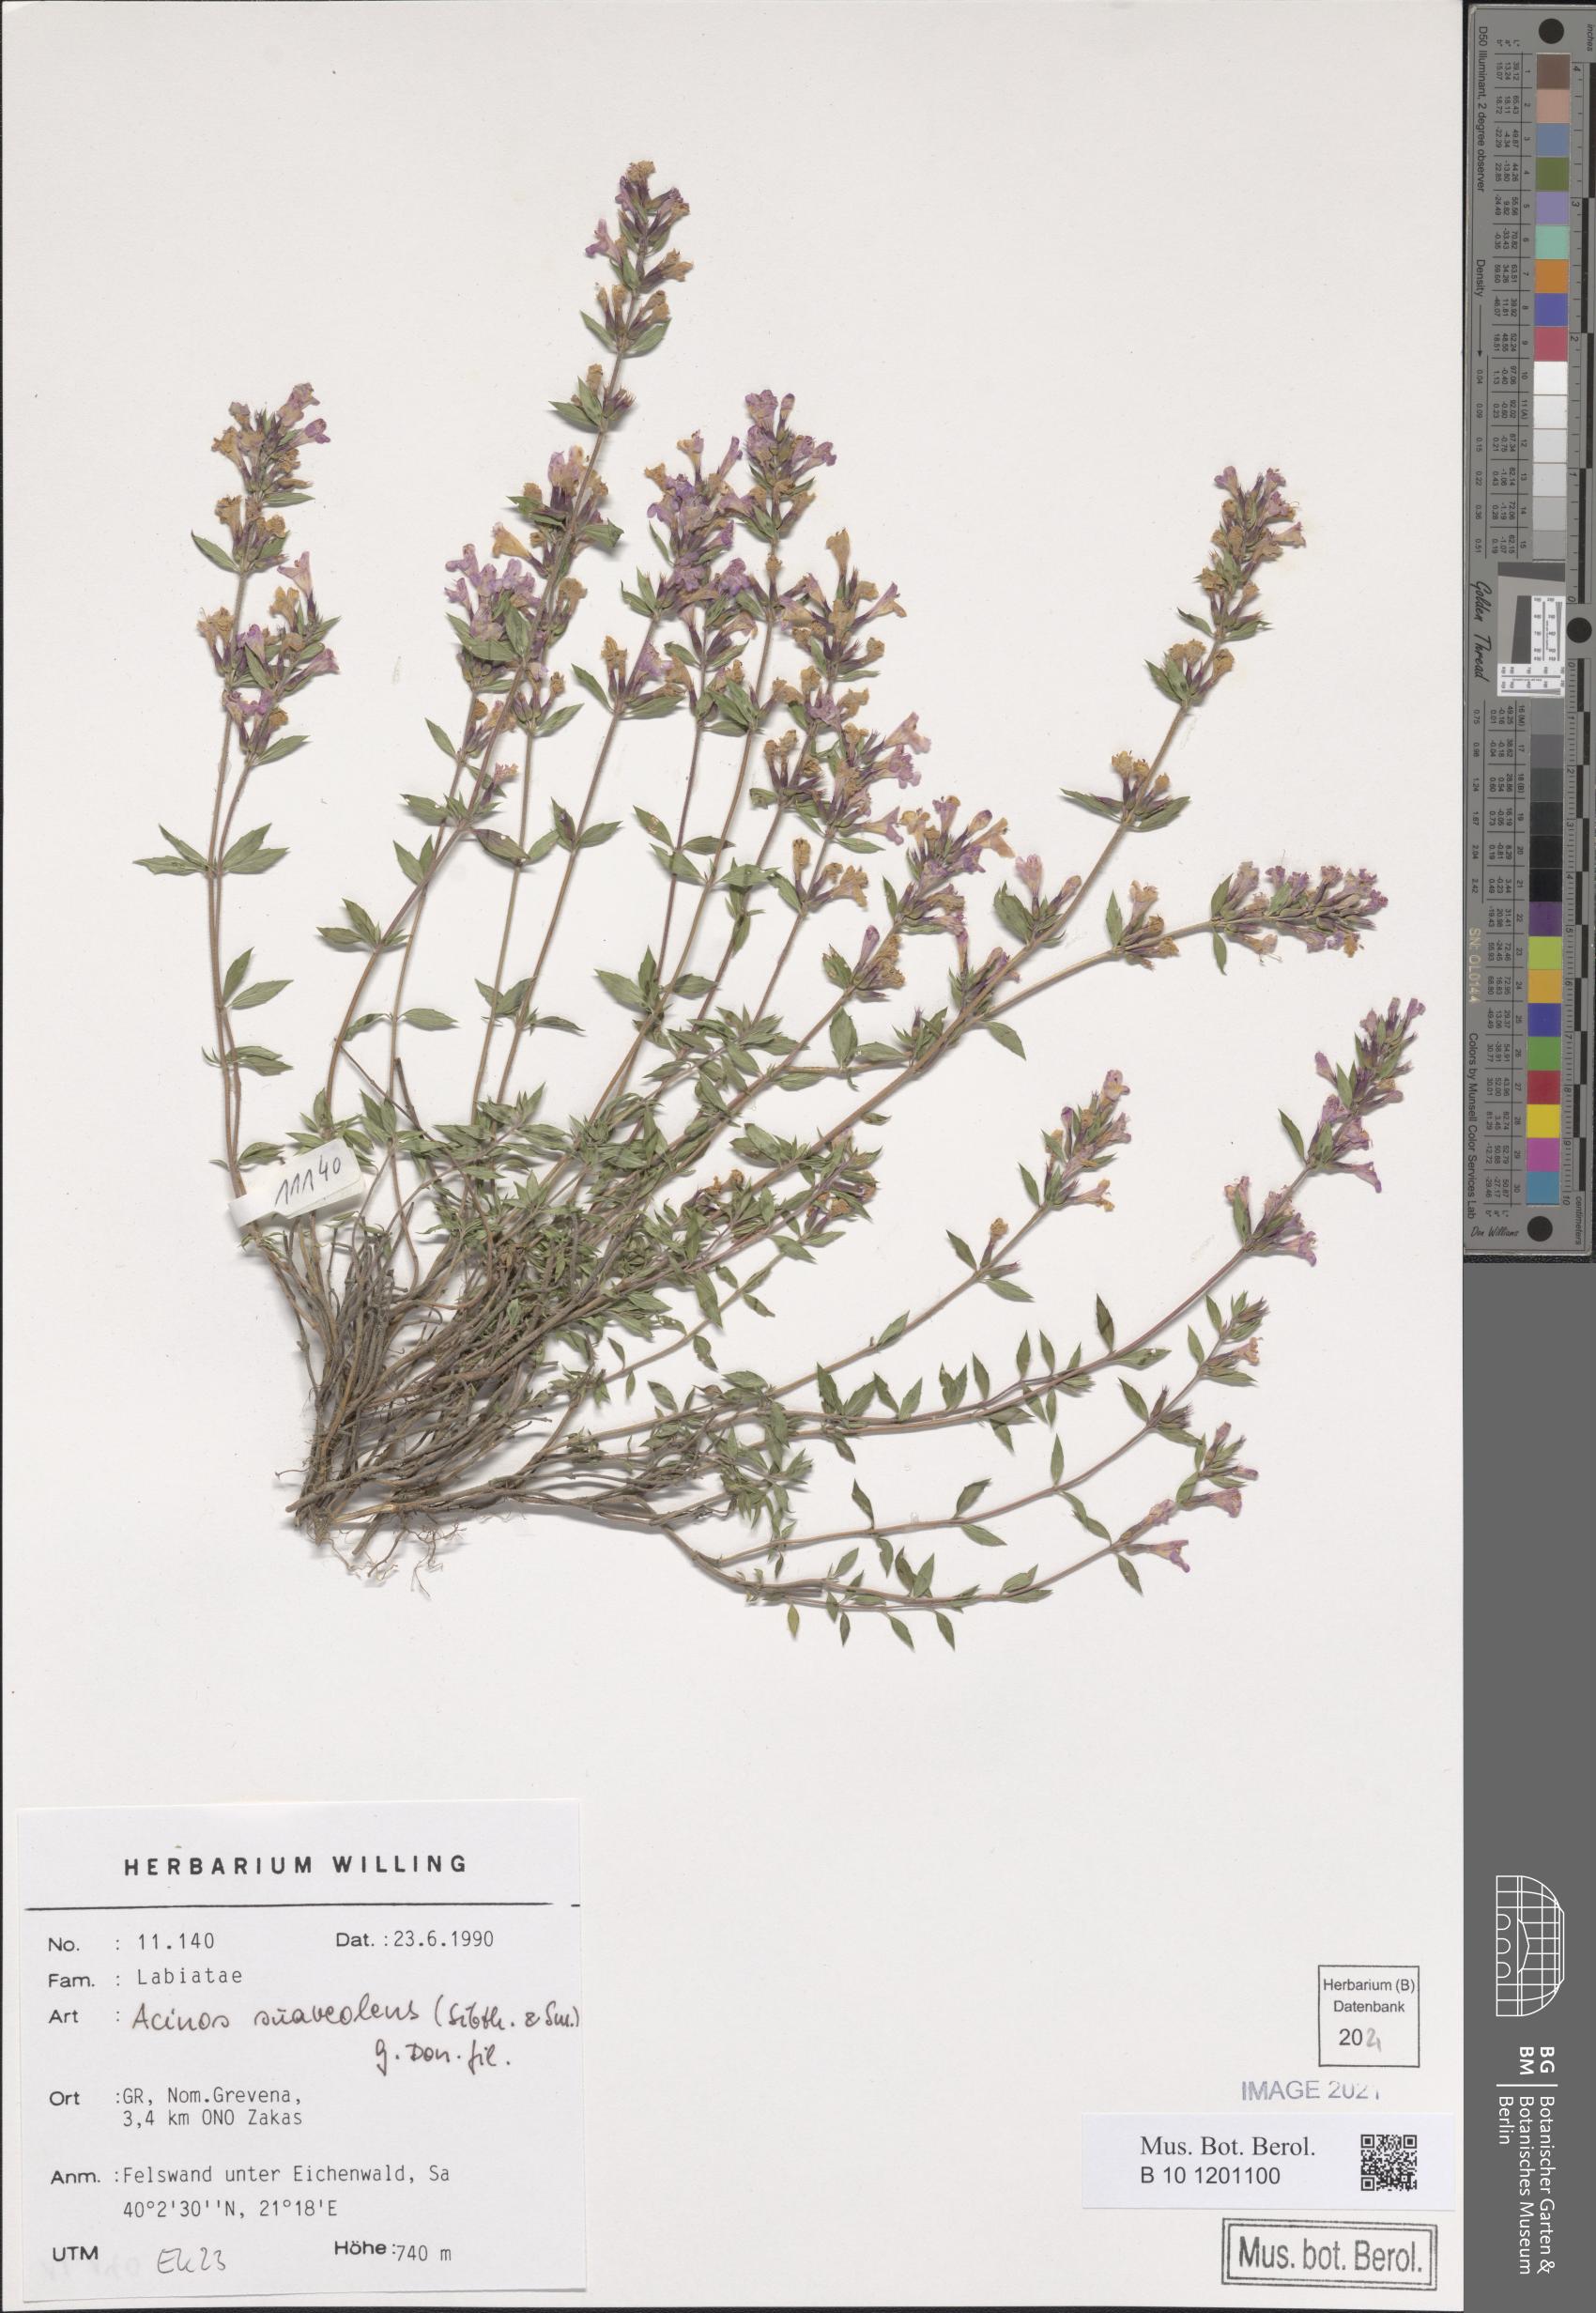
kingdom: Plantae
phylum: Tracheophyta
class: Magnoliopsida
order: Lamiales
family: Lamiaceae
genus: Clinopodium
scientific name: Clinopodium suaveolens
